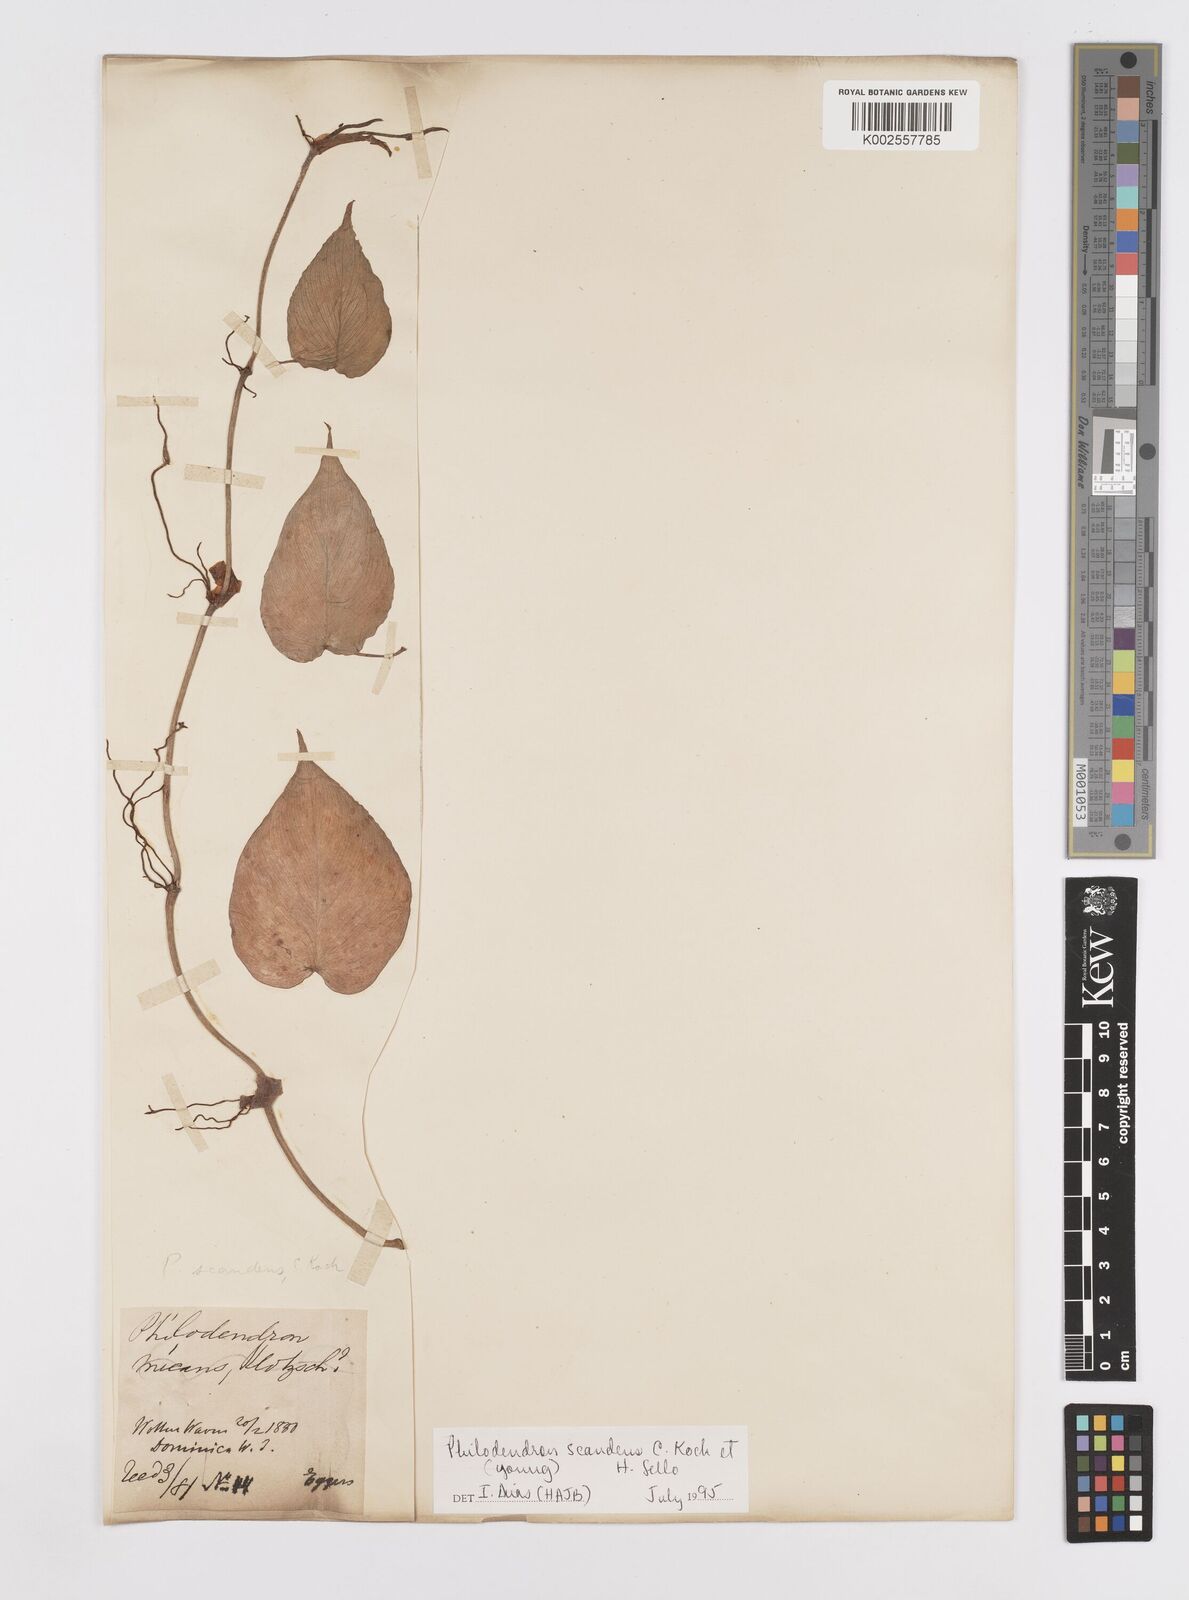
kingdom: Plantae
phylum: Tracheophyta
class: Liliopsida
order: Alismatales
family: Araceae
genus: Philodendron
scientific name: Philodendron hederaceum
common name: Vilevine
